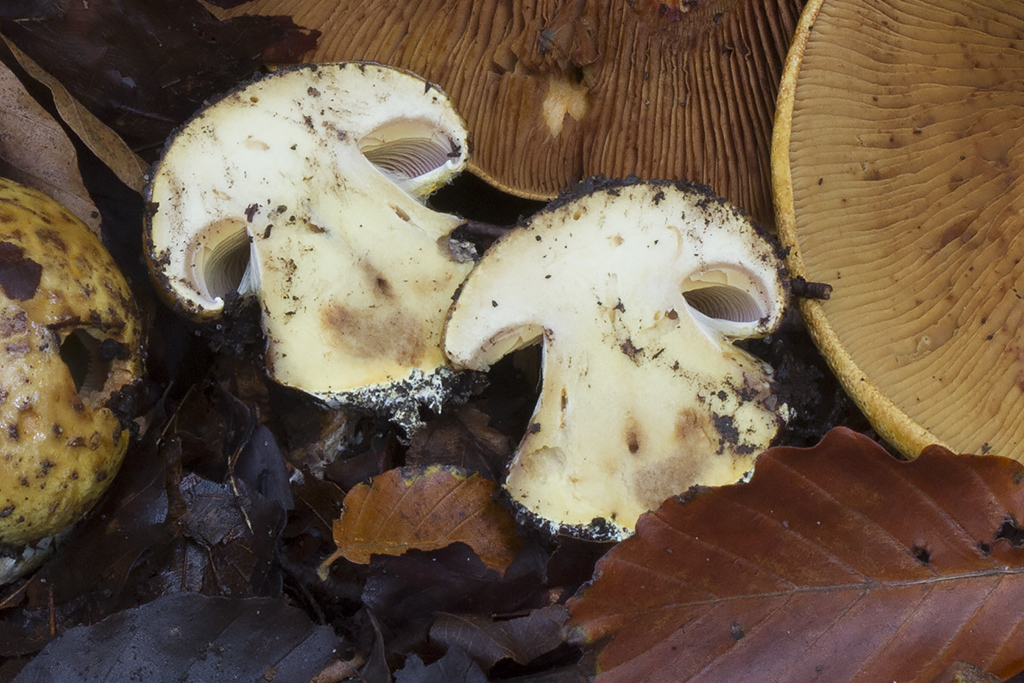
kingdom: Fungi
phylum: Basidiomycota
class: Agaricomycetes
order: Agaricales
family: Cortinariaceae
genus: Calonarius
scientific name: Calonarius alcalinophilus
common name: gyldenbrun slørhat
